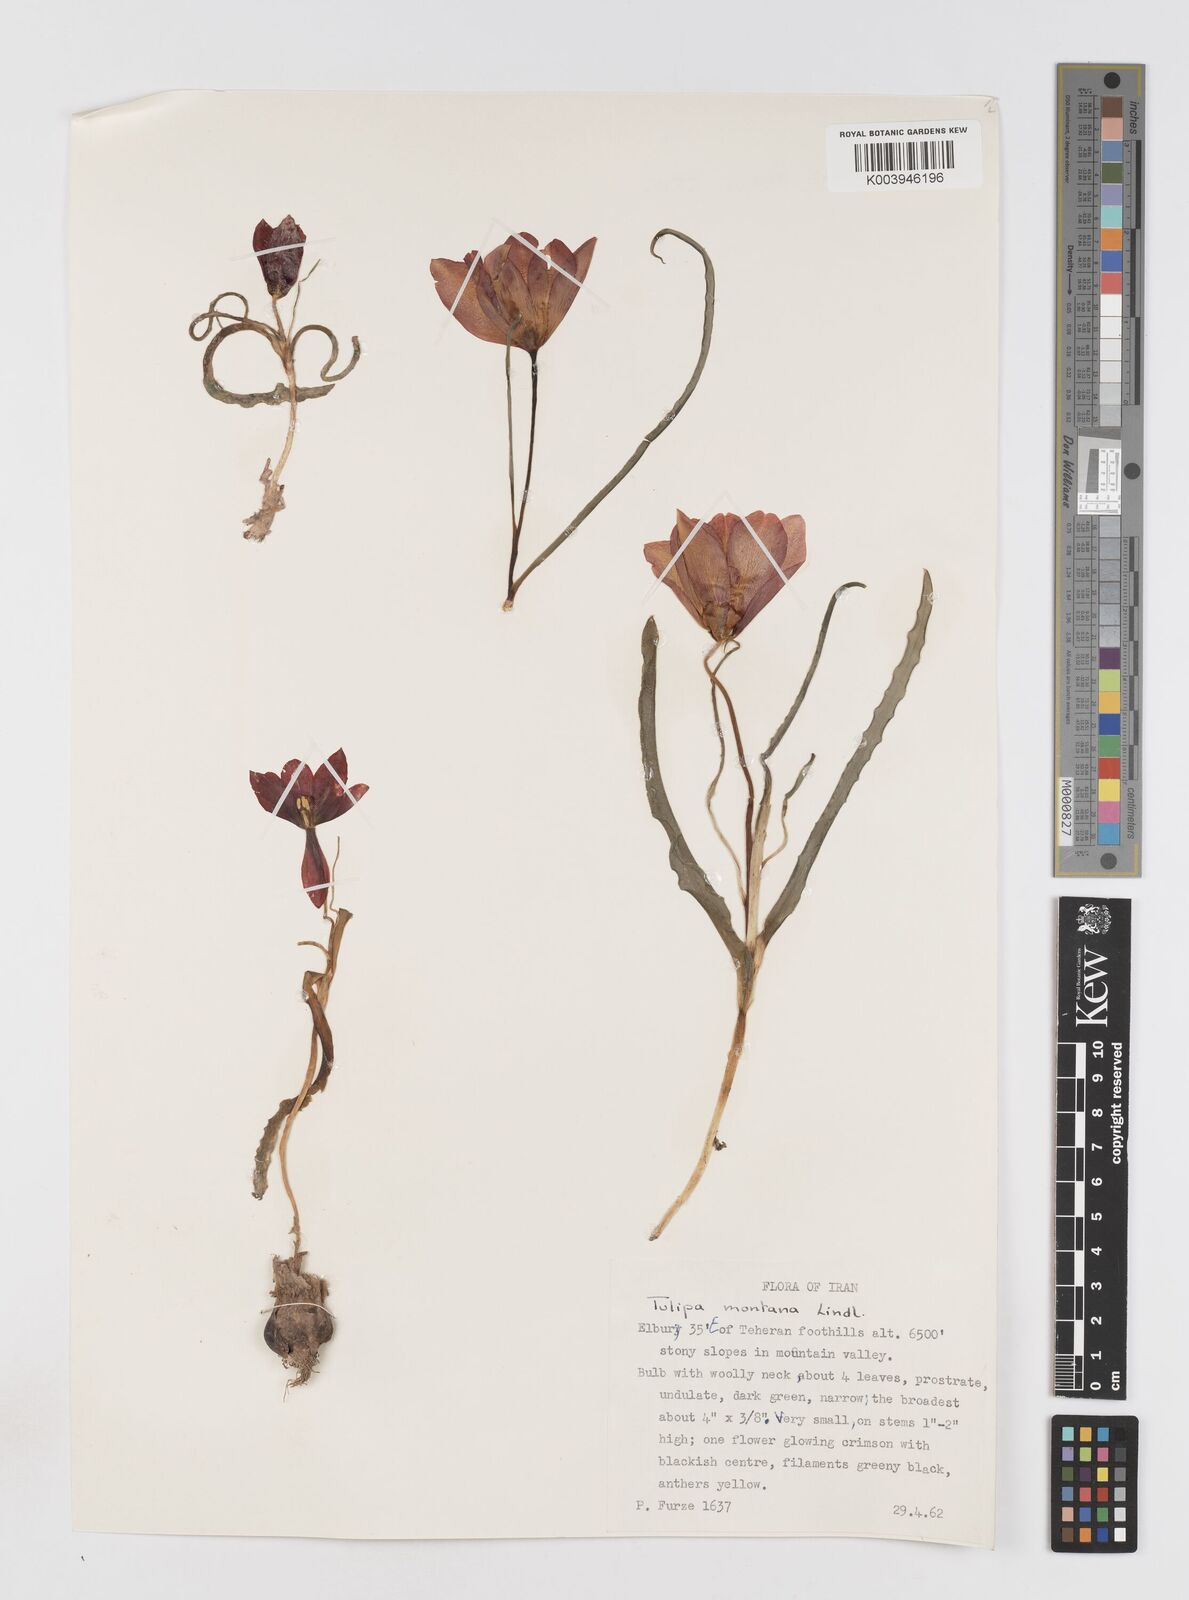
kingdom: Plantae
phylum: Tracheophyta
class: Liliopsida
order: Liliales
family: Liliaceae
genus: Tulipa
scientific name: Tulipa montana
